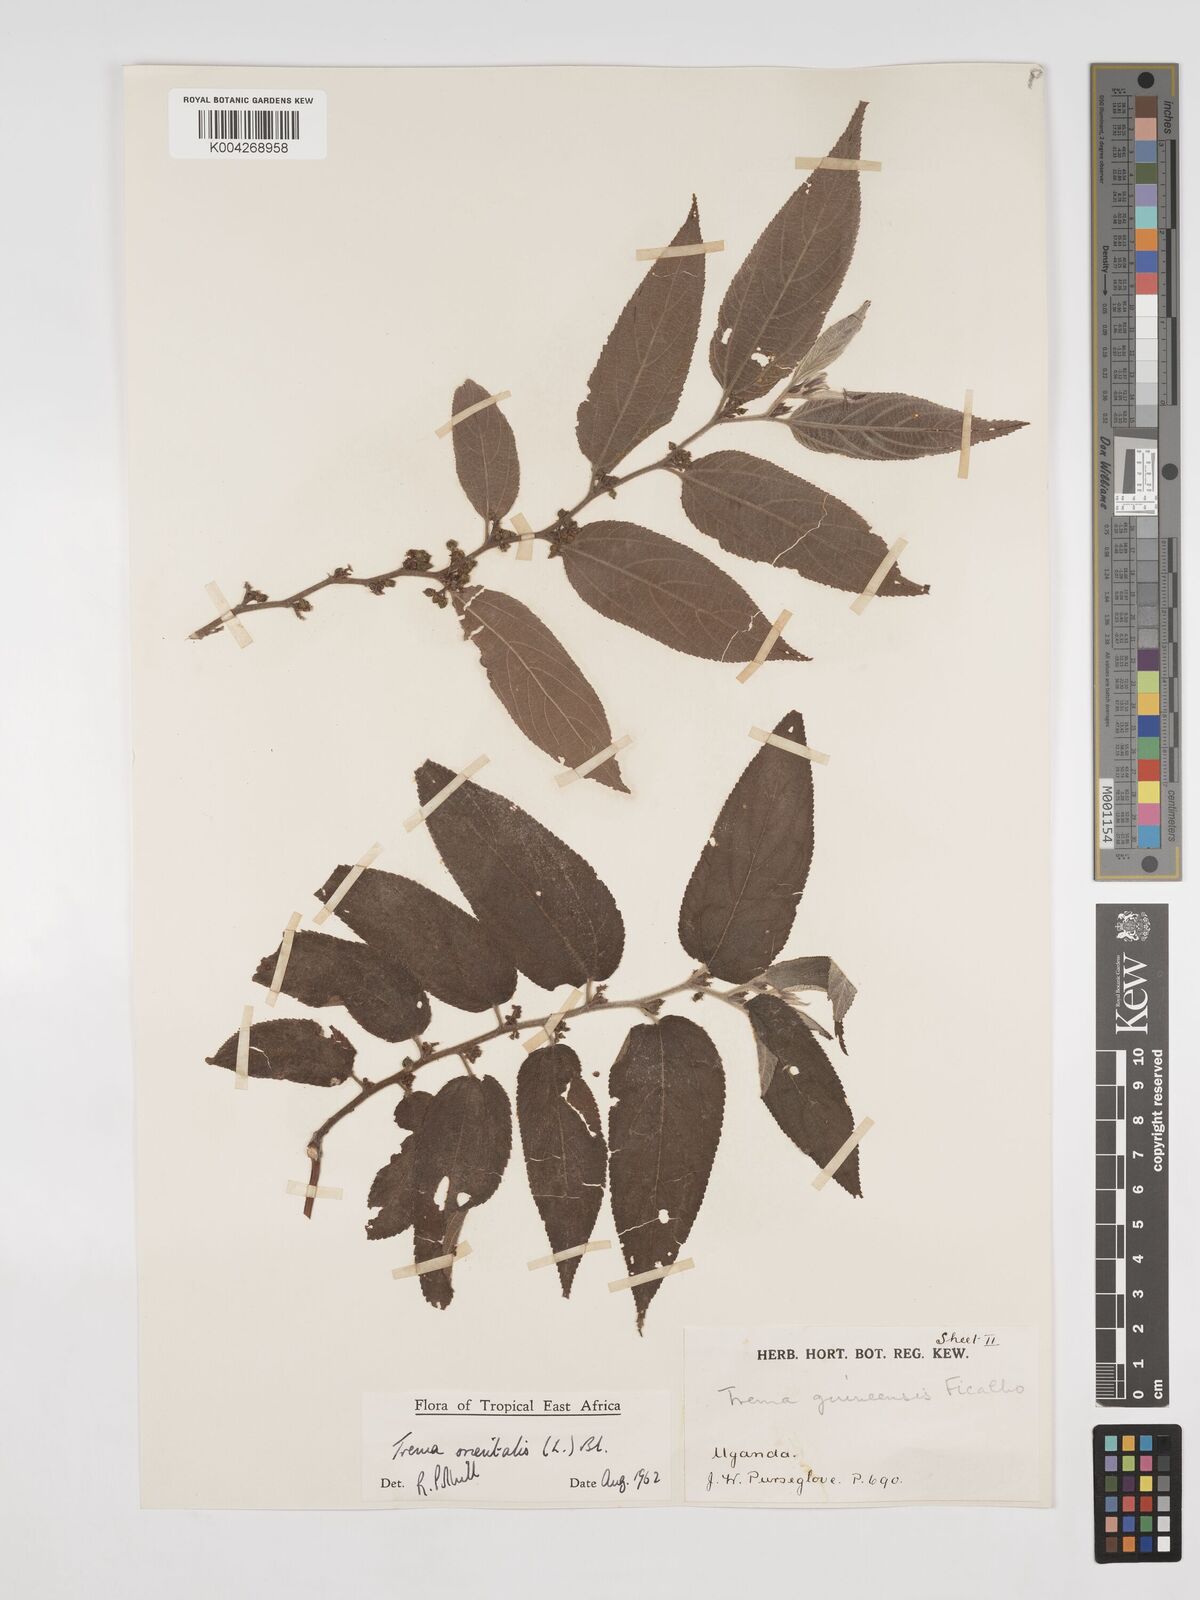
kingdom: Plantae
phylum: Tracheophyta
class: Magnoliopsida
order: Rosales
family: Cannabaceae
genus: Trema
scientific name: Trema orientale
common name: Indian charcoal tree
